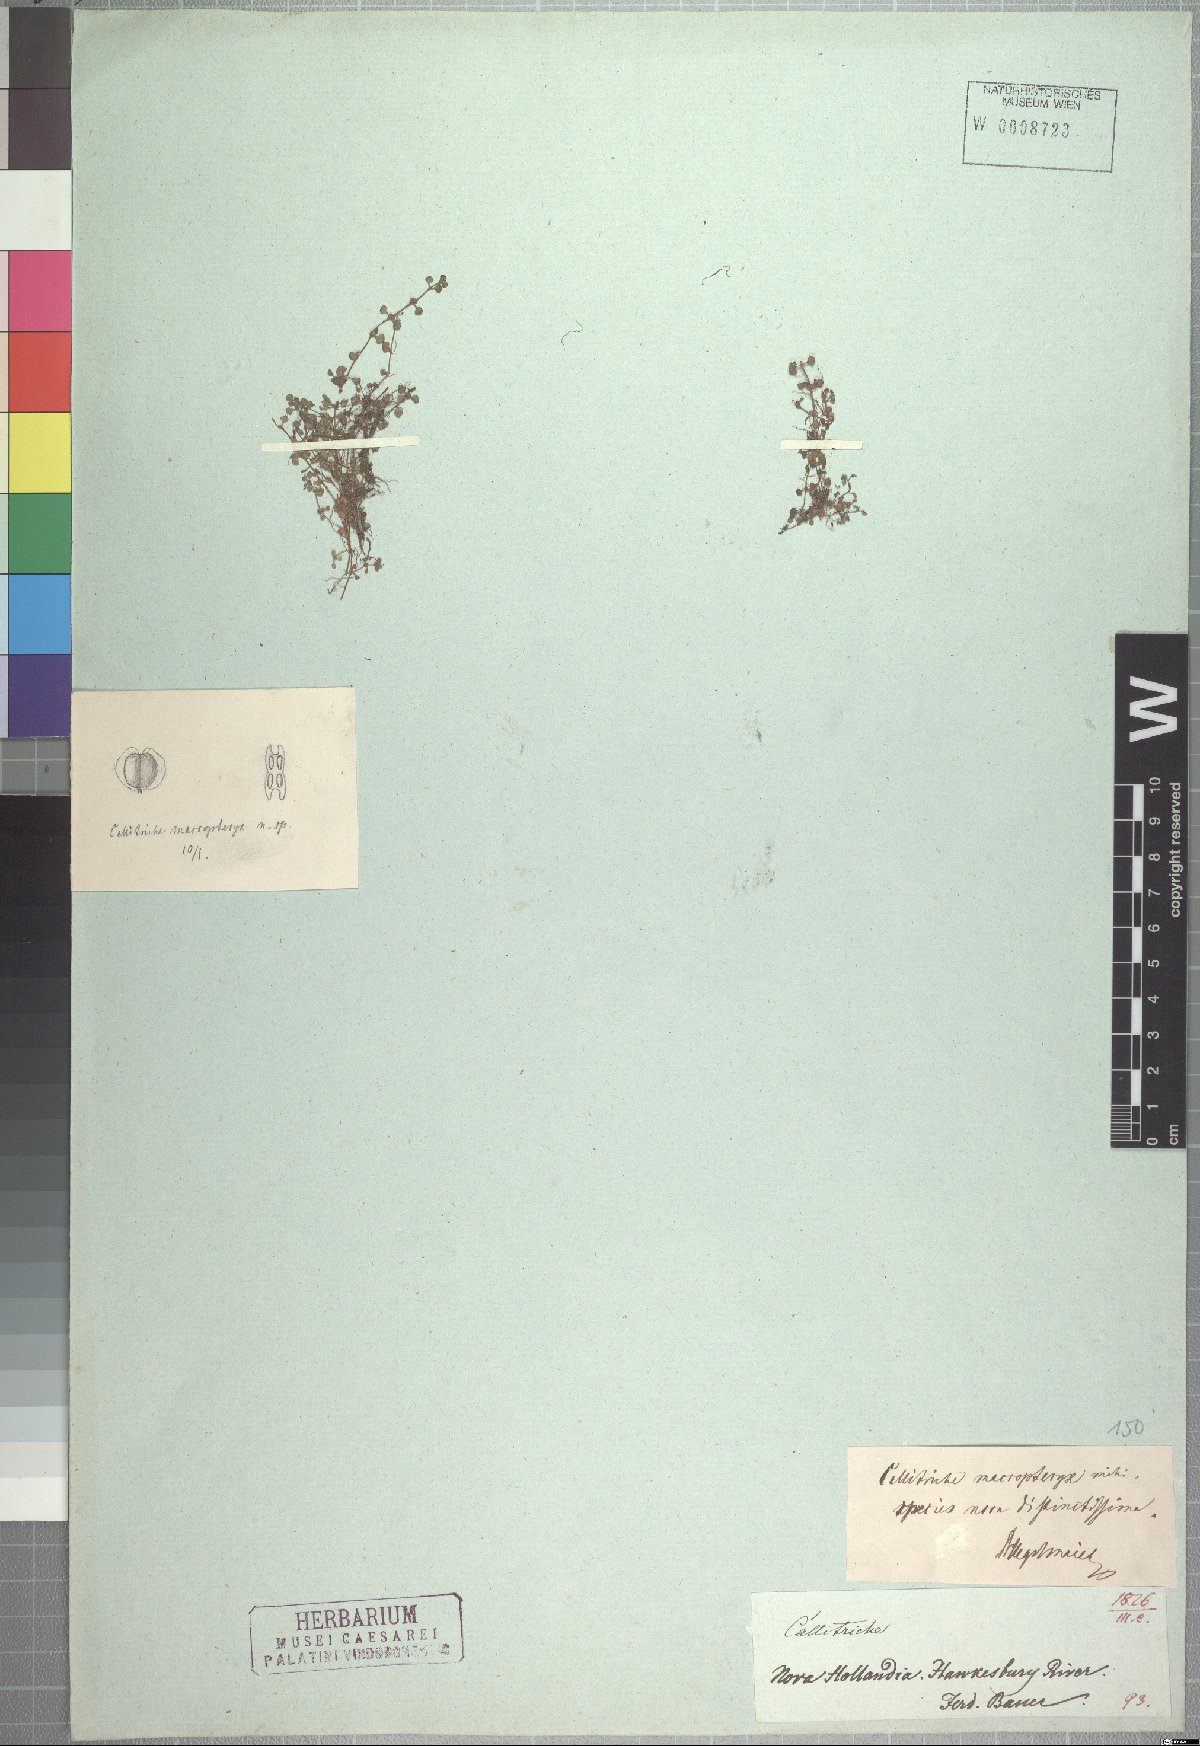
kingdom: Plantae
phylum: Tracheophyta
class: Magnoliopsida
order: Lamiales
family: Plantaginaceae
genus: Callitriche
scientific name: Callitriche muelleri
